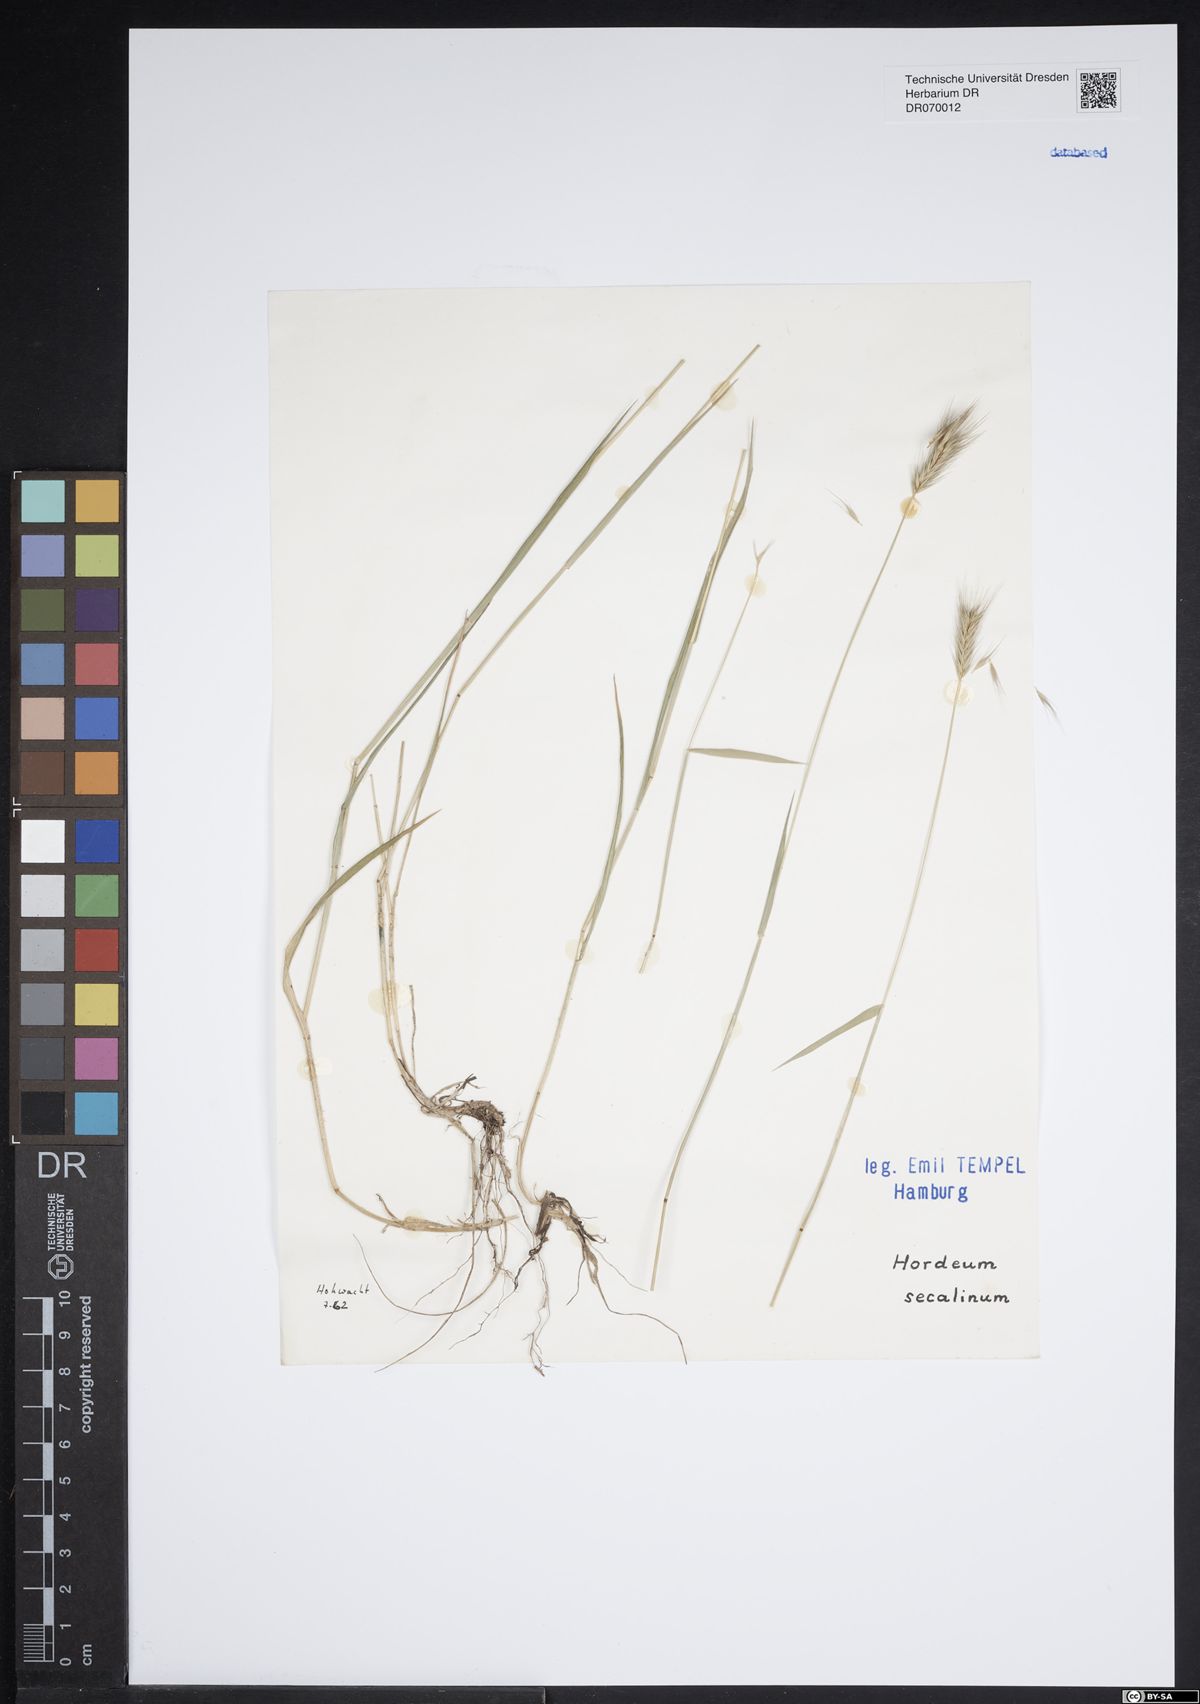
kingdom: Plantae
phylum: Tracheophyta
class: Liliopsida
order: Poales
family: Poaceae
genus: Hordeum
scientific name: Hordeum secalinum
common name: Meadow barley
